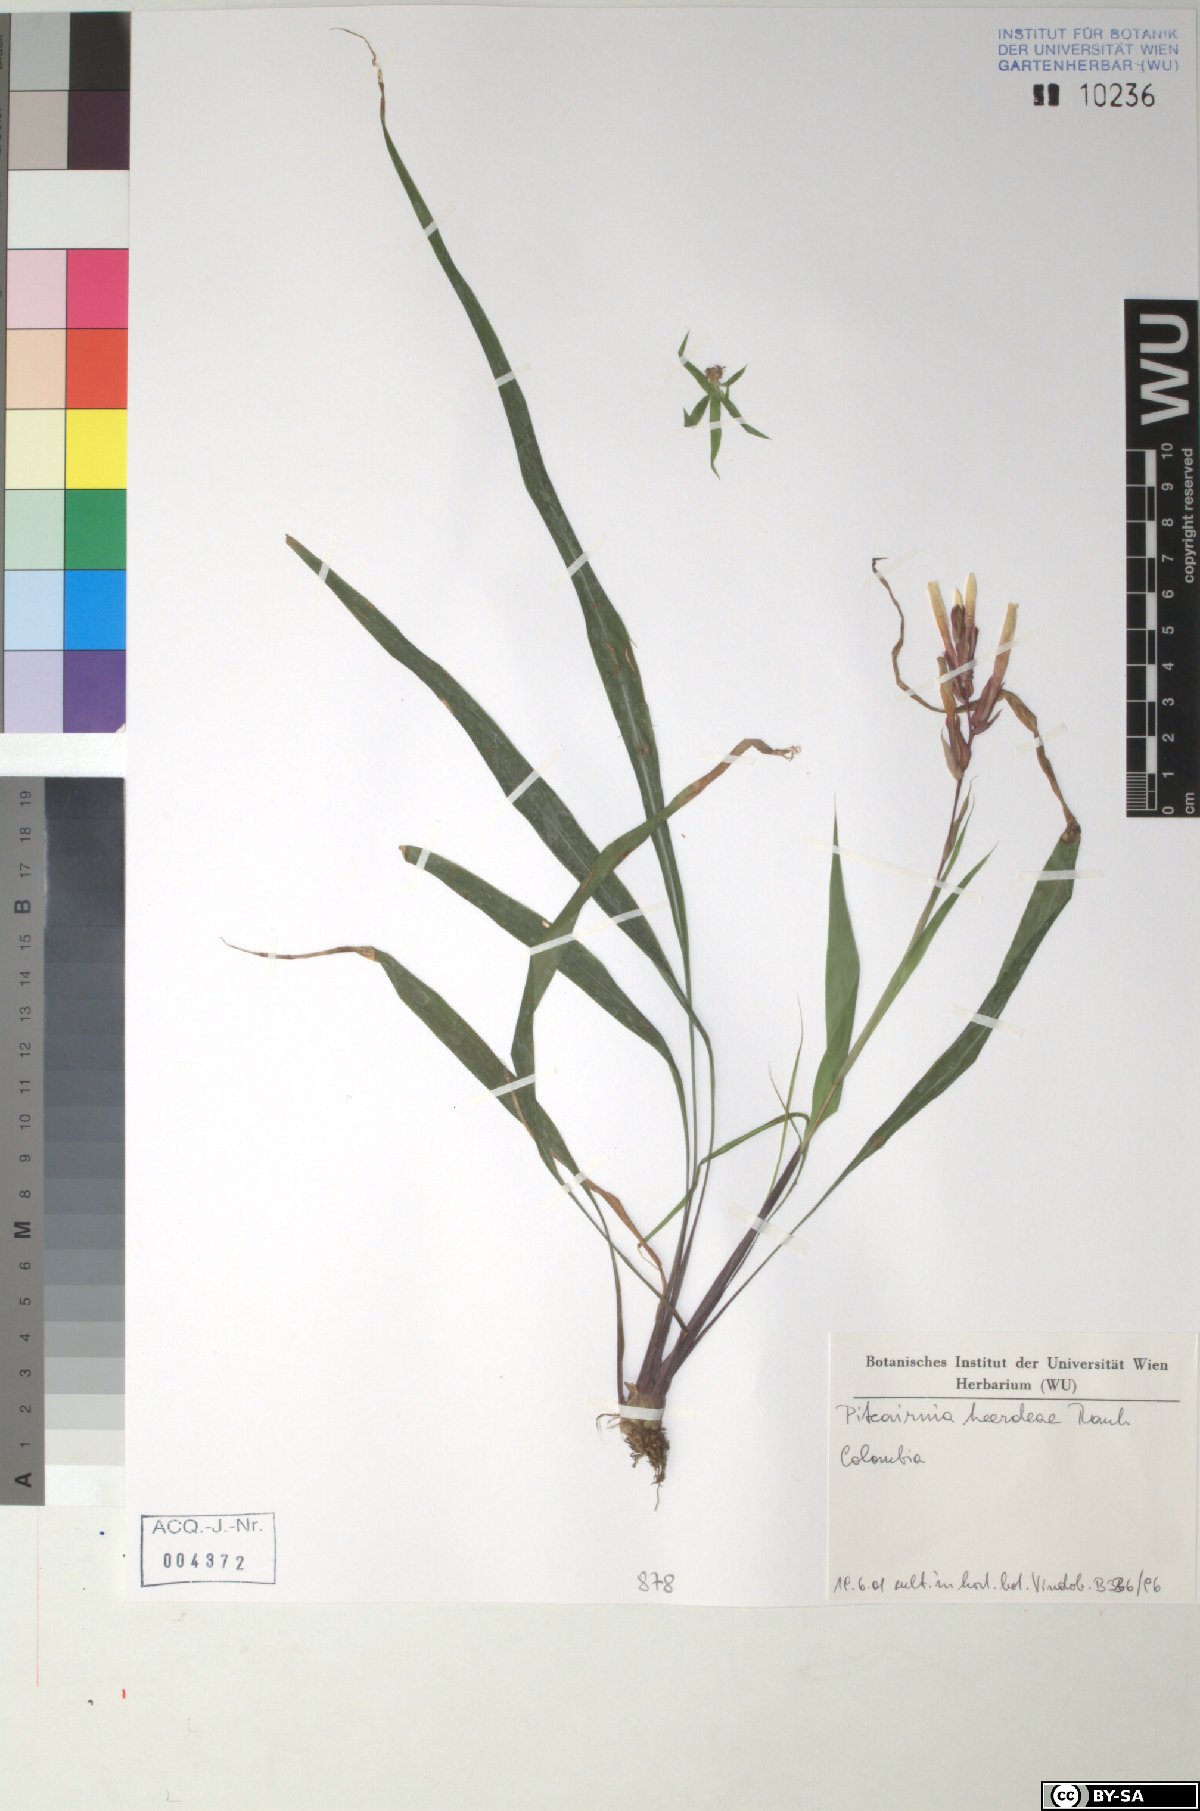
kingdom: Plantae
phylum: Tracheophyta
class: Liliopsida
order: Poales
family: Bromeliaceae
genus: Pitcairnia
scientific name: Pitcairnia heerdeae
